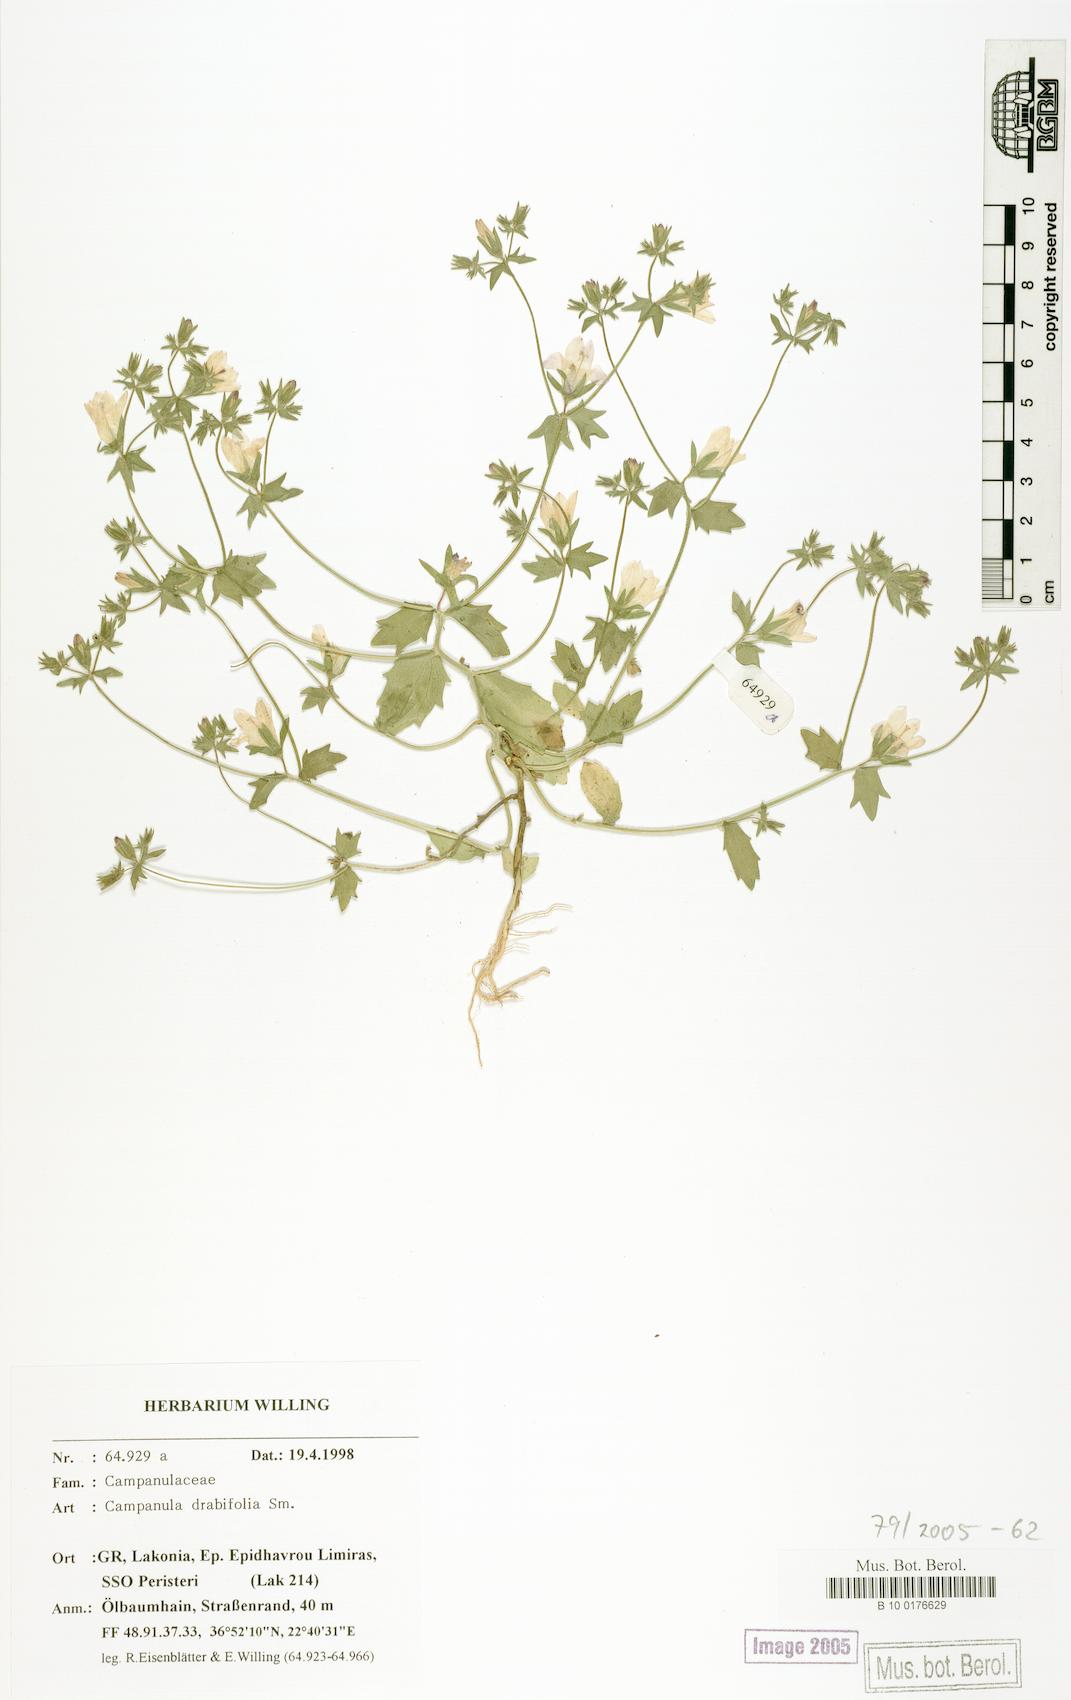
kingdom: Plantae
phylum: Tracheophyta
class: Magnoliopsida
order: Asterales
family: Campanulaceae
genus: Campanula
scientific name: Campanula drabifolia
